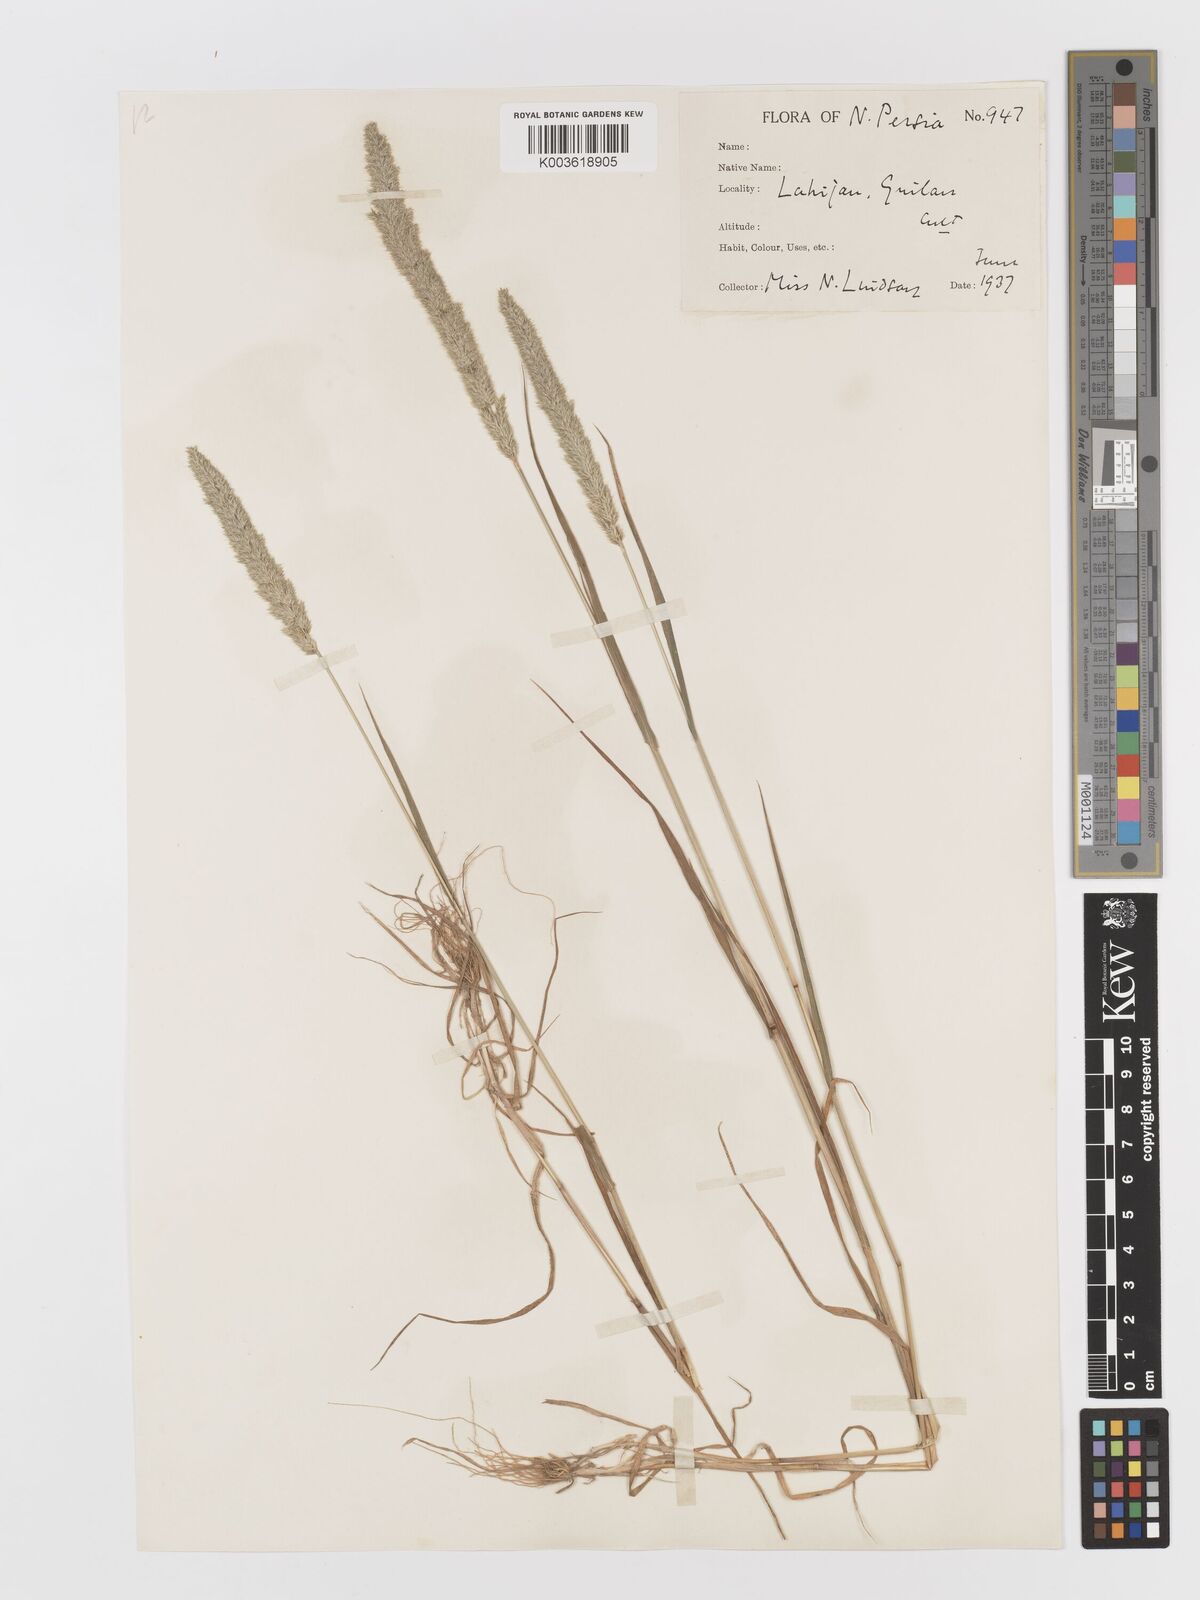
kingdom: Plantae
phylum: Tracheophyta
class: Liliopsida
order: Poales
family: Poaceae
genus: Rostraria
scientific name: Rostraria cristata
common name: Mediterranean hair-grass
